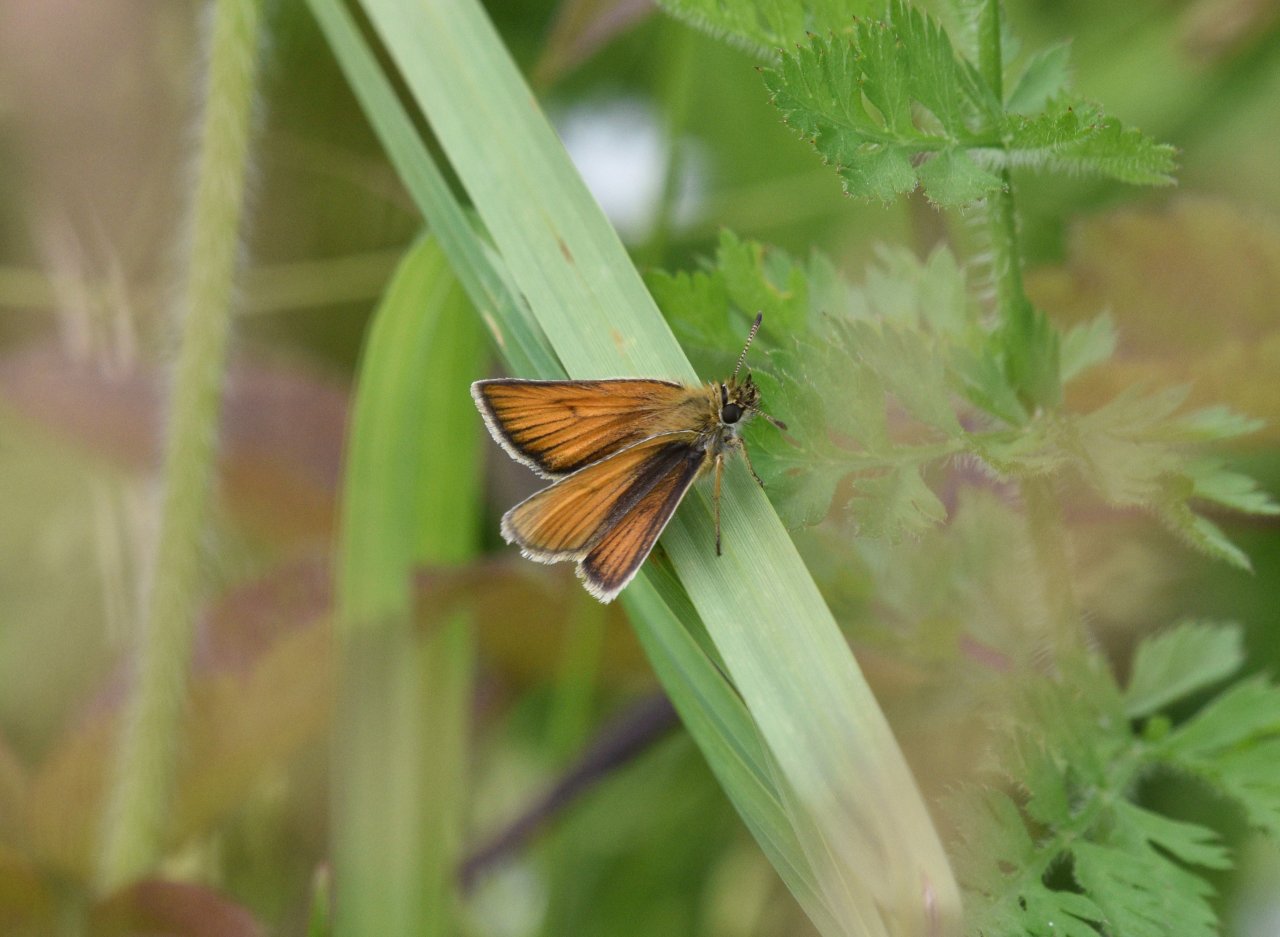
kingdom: Animalia
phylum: Arthropoda
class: Insecta
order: Lepidoptera
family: Hesperiidae
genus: Thymelicus
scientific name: Thymelicus lineola
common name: European Skipper
